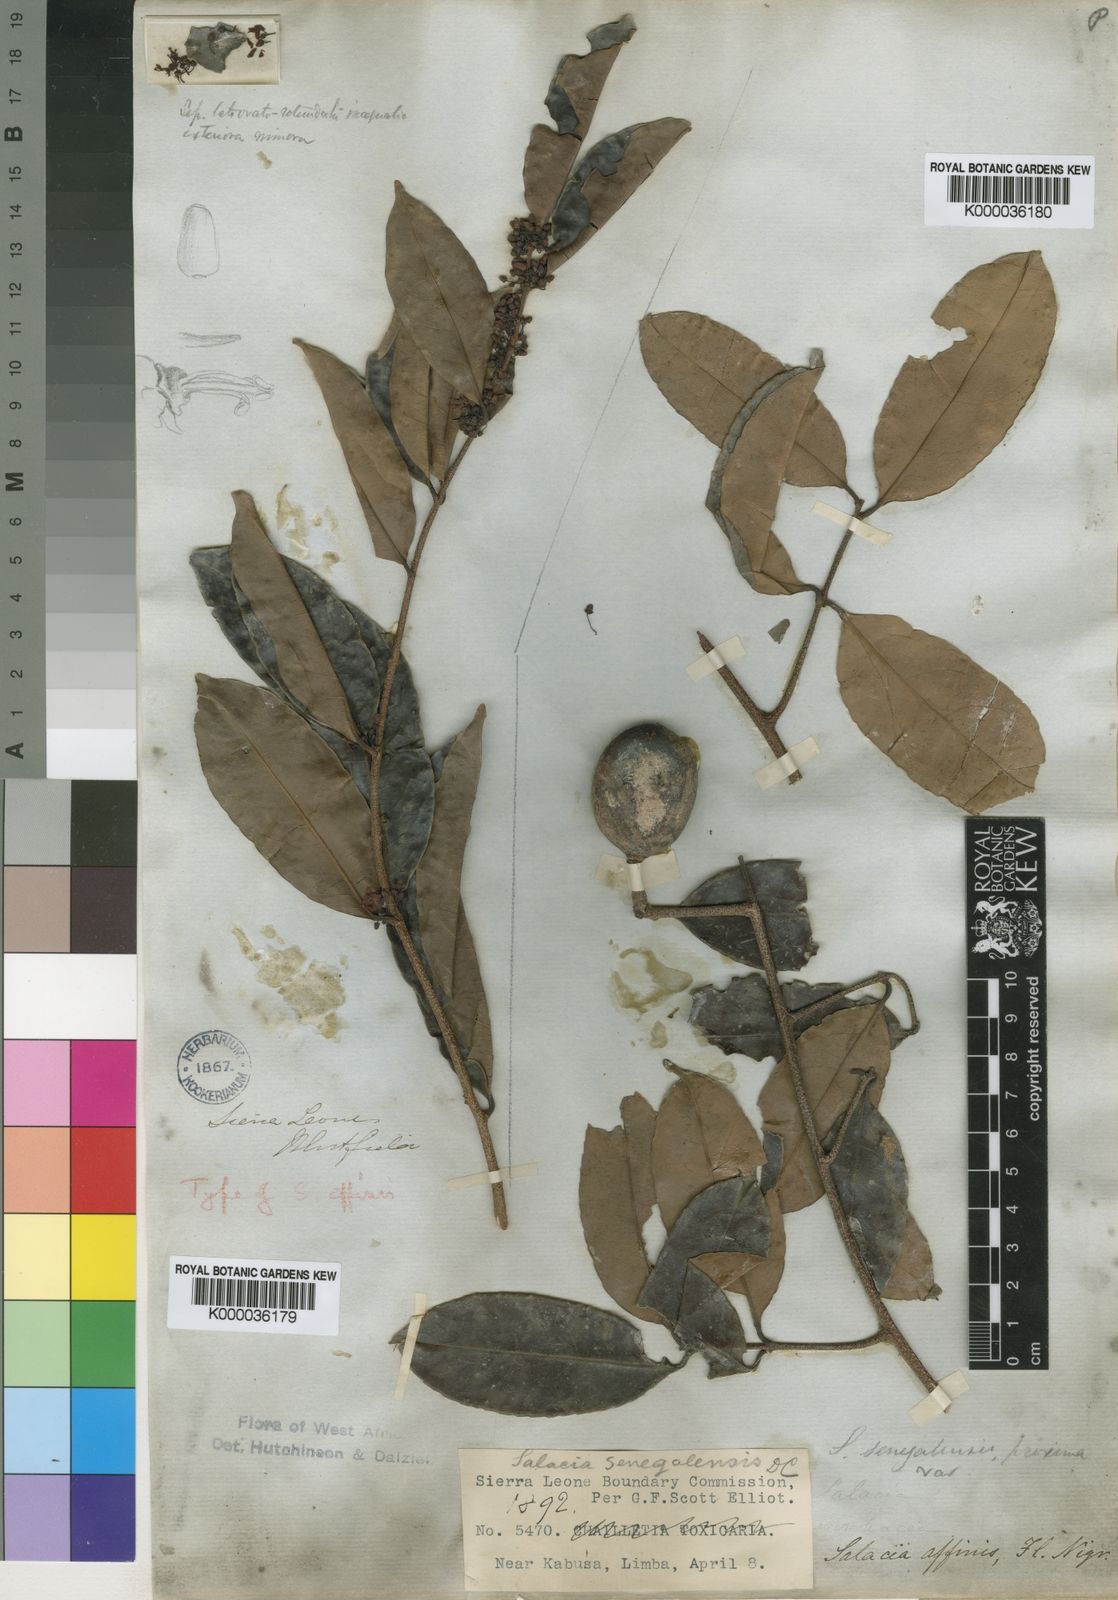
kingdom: Plantae
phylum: Tracheophyta
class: Magnoliopsida
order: Celastrales
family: Celastraceae
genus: Salacia
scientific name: Salacia senegalensis
